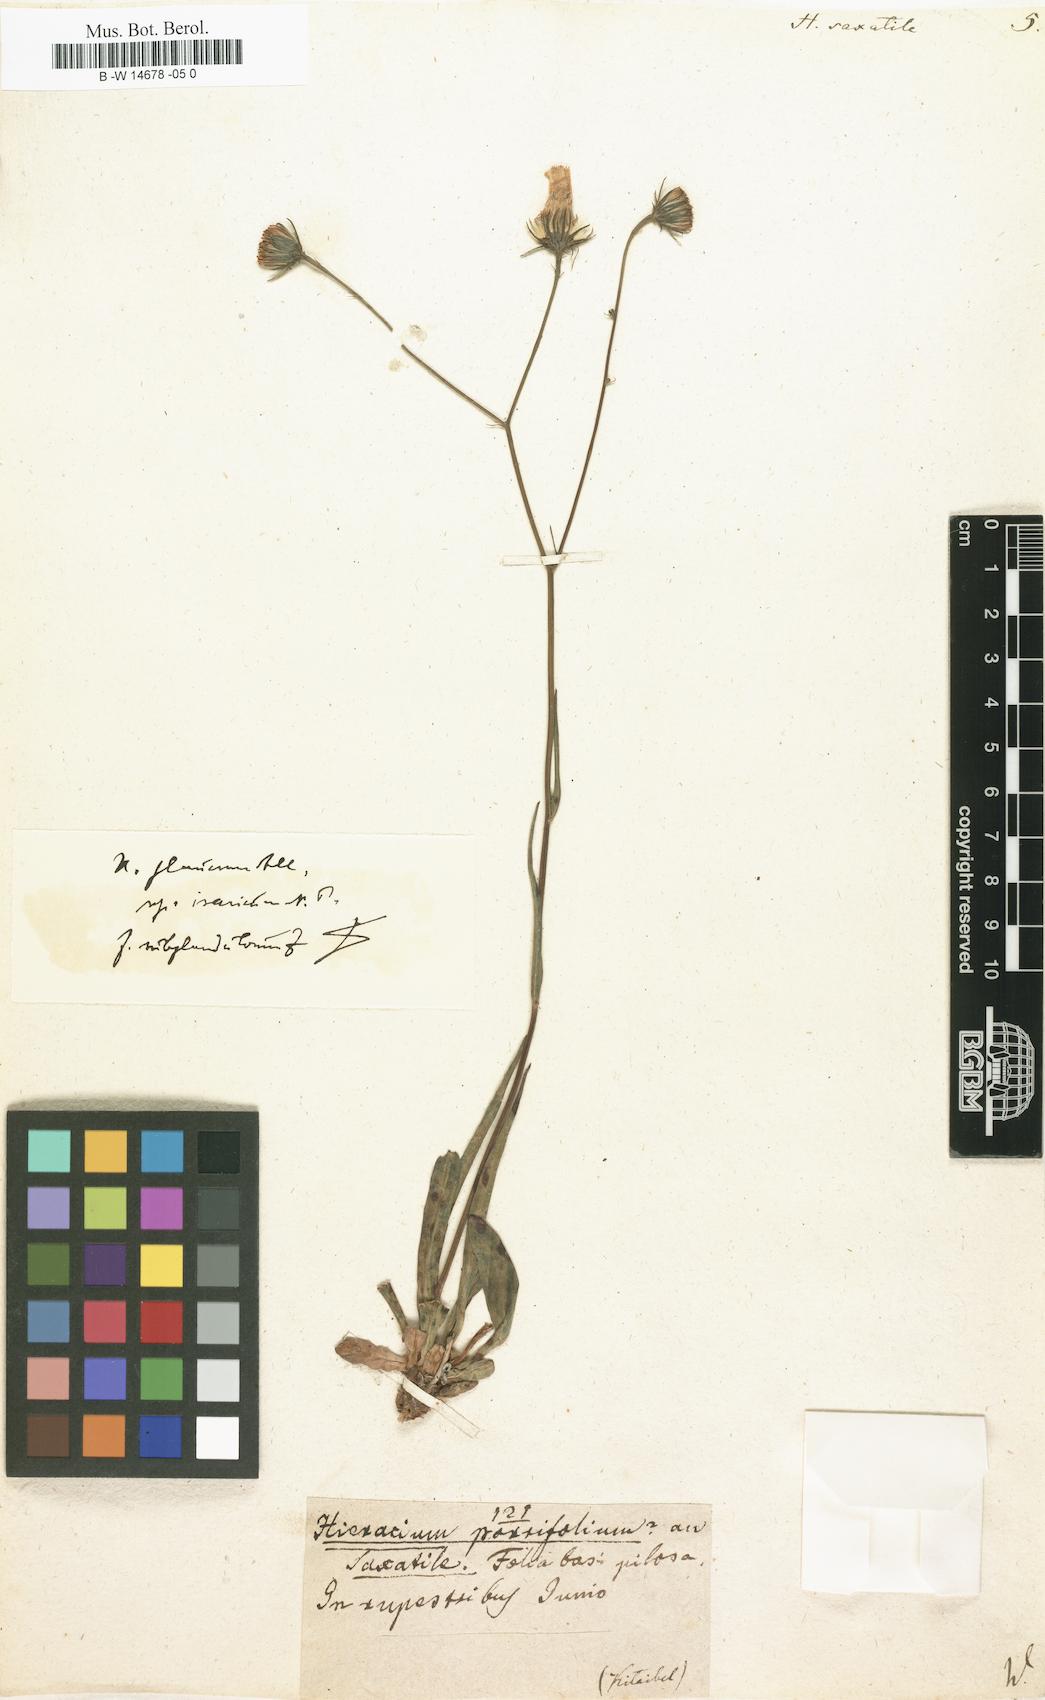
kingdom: Plantae
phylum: Tracheophyta
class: Magnoliopsida
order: Asterales
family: Asteraceae
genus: Hieracium
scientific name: Hieracium saxatile
